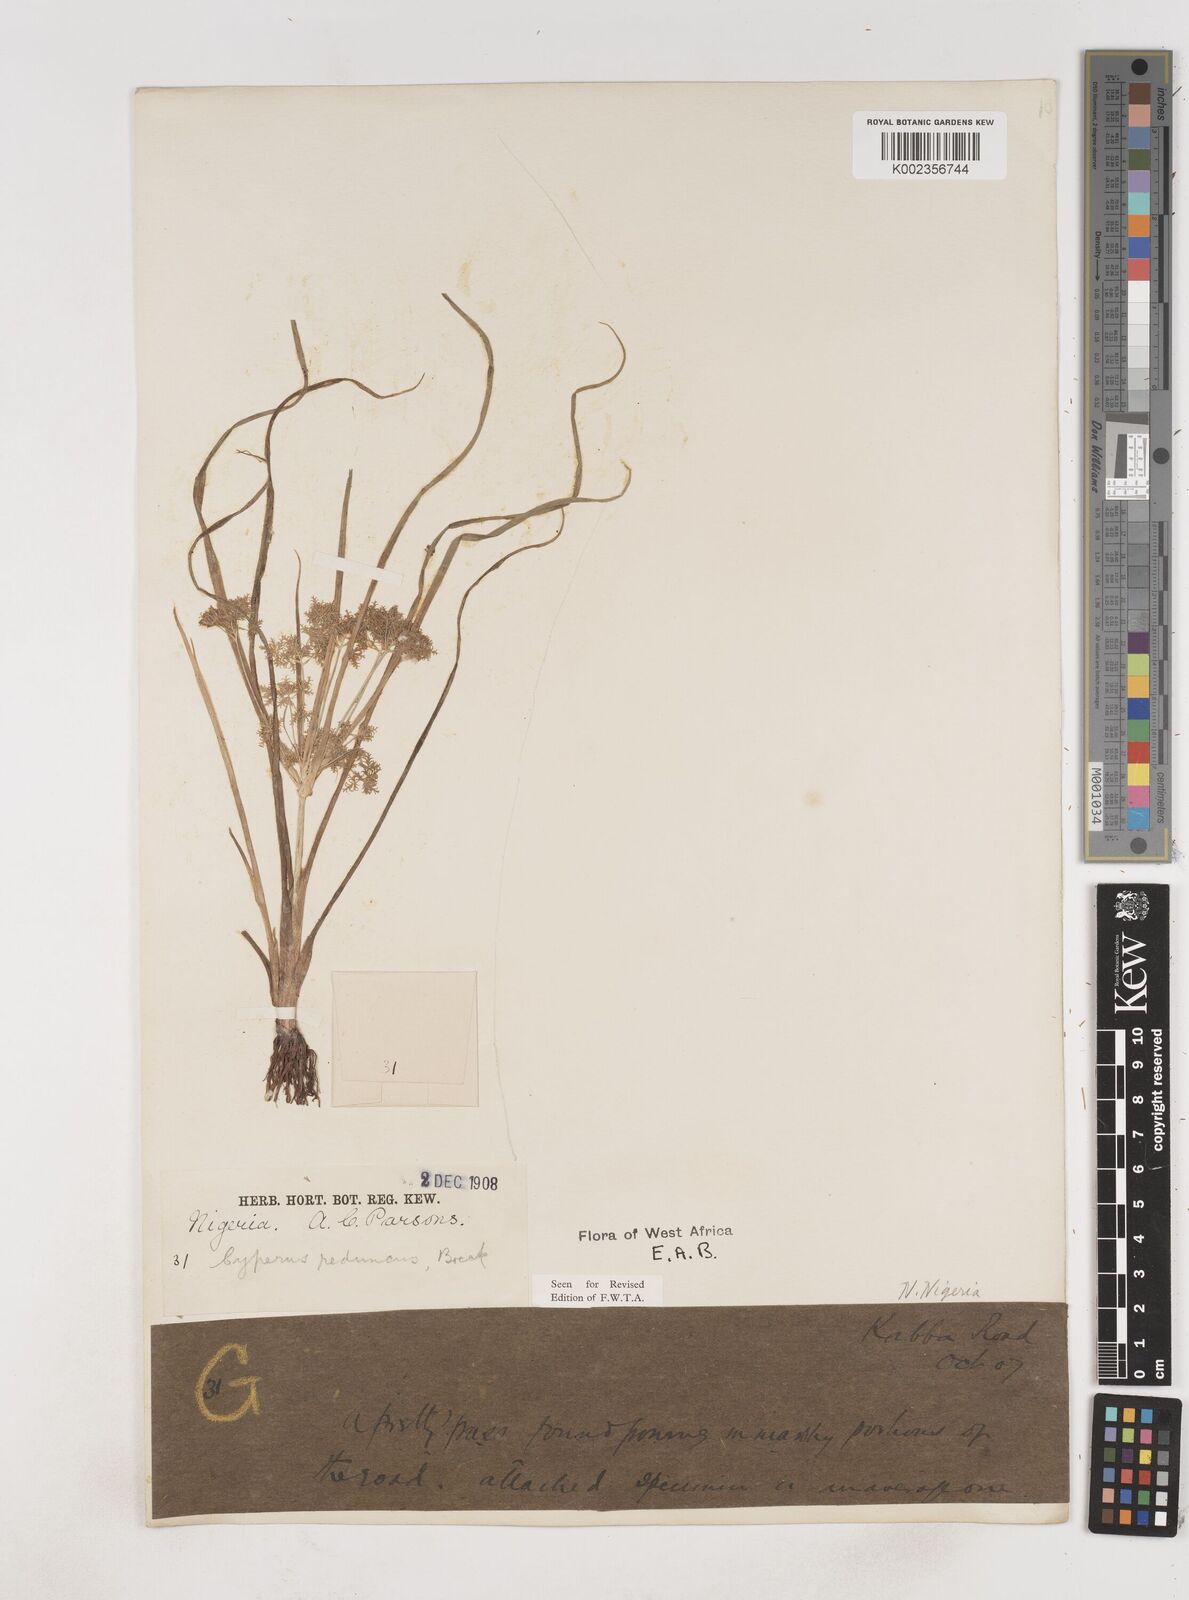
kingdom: Plantae
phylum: Tracheophyta
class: Liliopsida
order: Poales
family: Cyperaceae
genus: Cyperus
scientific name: Cyperus reduncus
